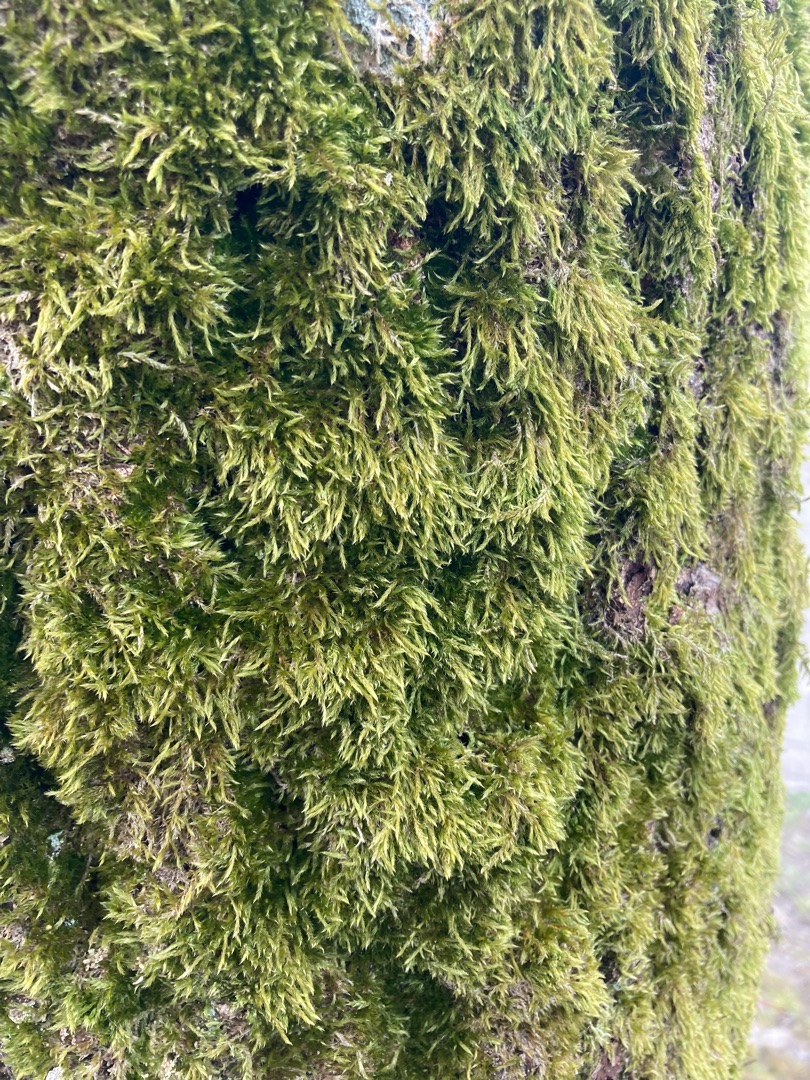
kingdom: Plantae
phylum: Bryophyta
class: Bryopsida
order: Hypnales
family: Hypnaceae
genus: Hypnum
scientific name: Hypnum cupressiforme
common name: Almindelig cypresmos
